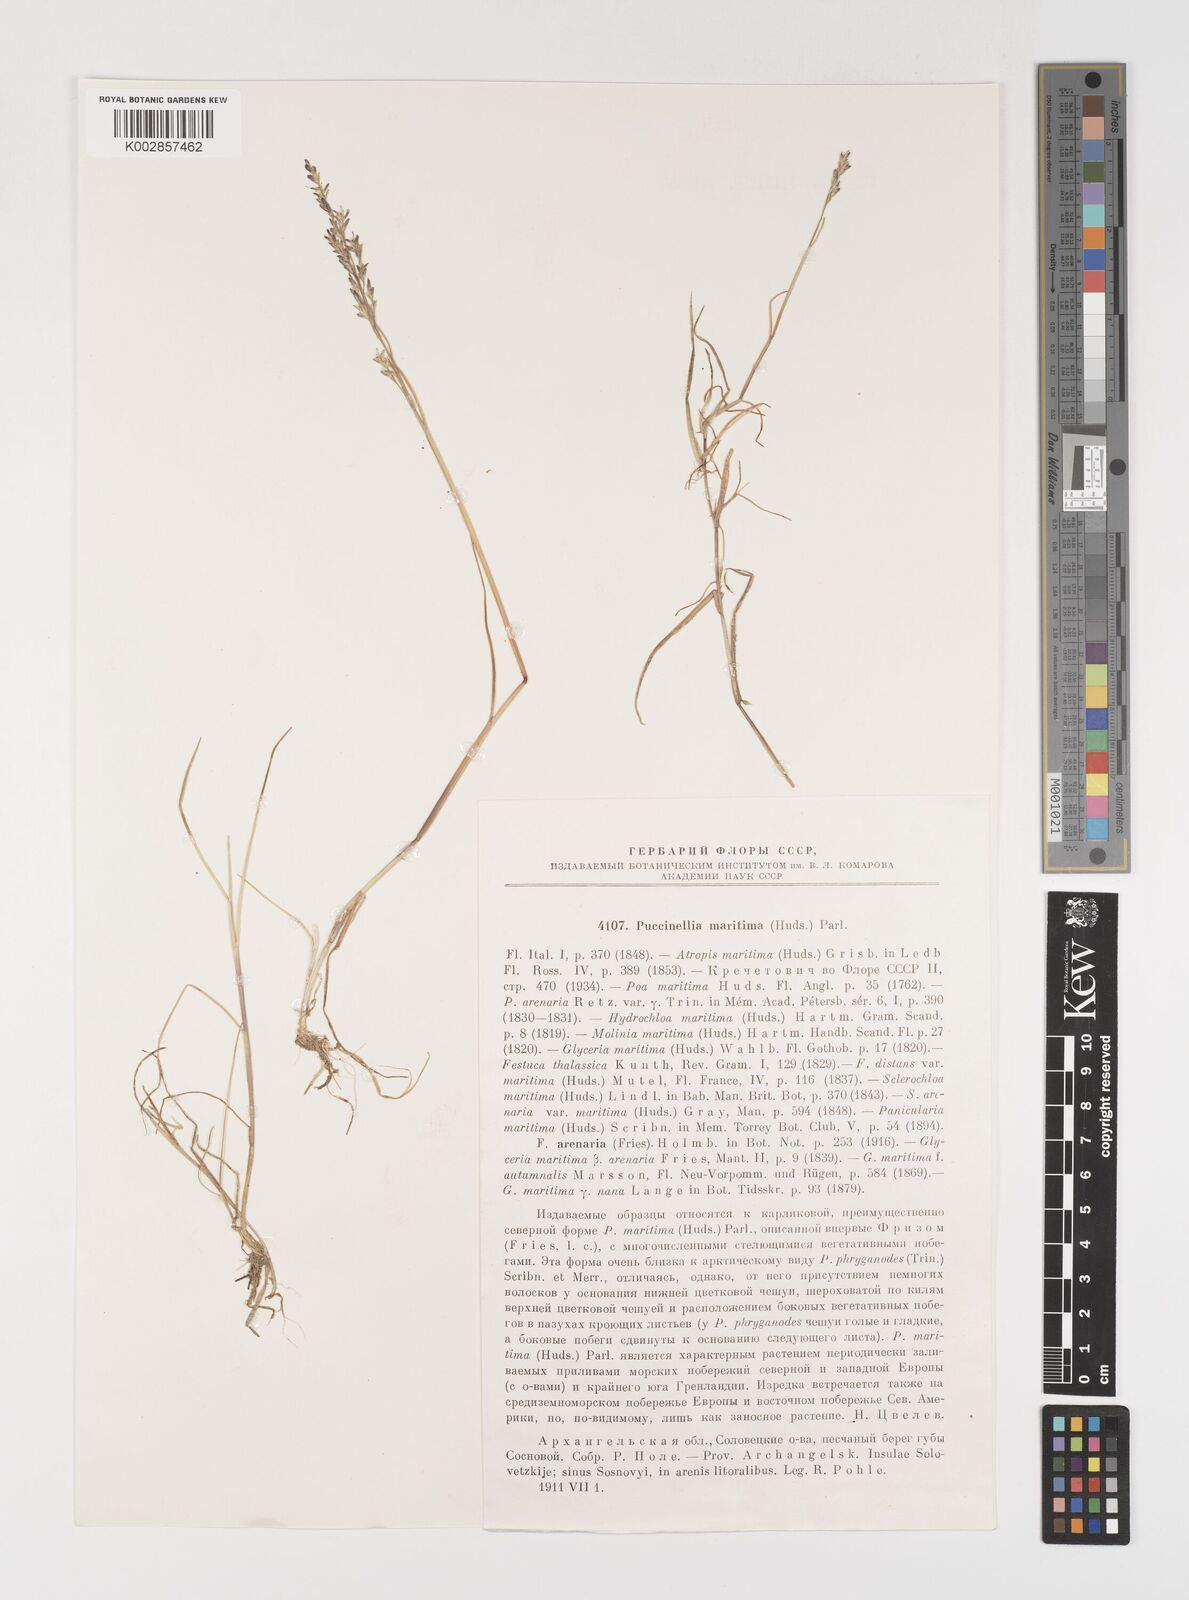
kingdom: Plantae
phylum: Tracheophyta
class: Liliopsida
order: Poales
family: Poaceae
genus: Puccinellia
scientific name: Puccinellia
